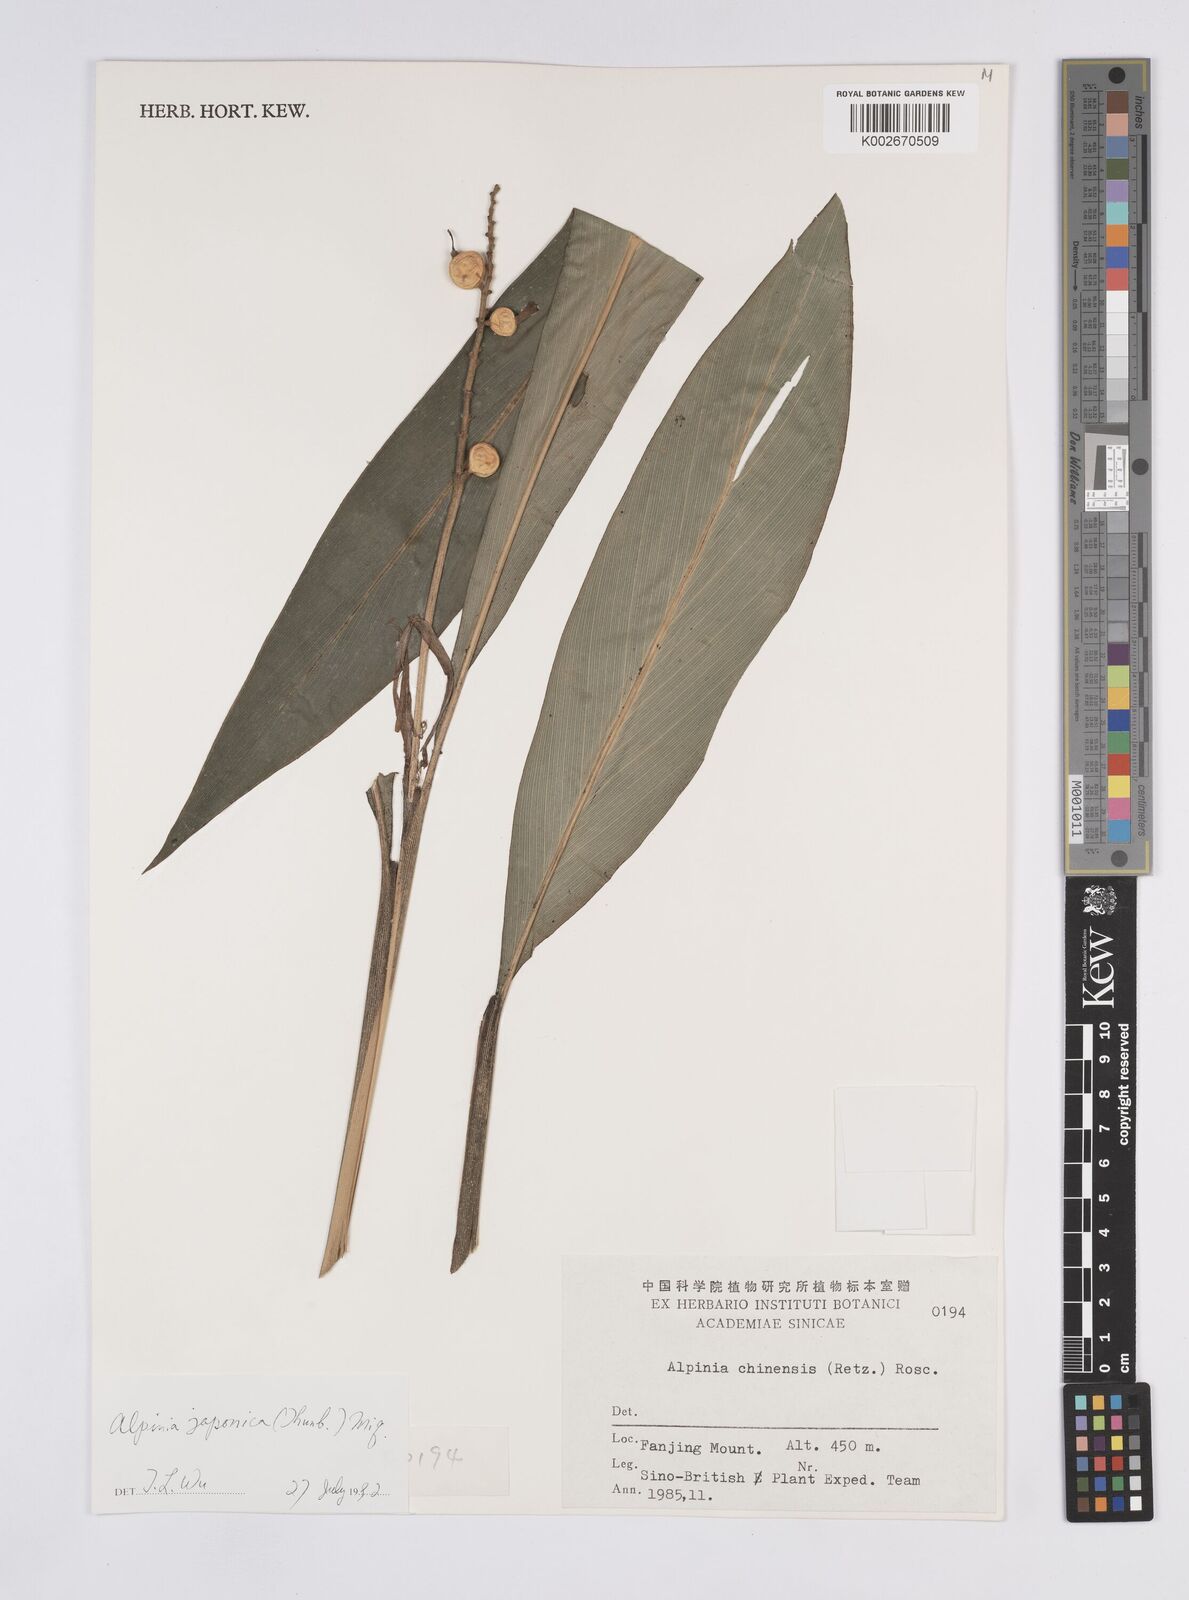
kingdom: Plantae
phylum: Tracheophyta
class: Liliopsida
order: Zingiberales
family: Zingiberaceae
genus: Alpinia
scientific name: Alpinia japonica
